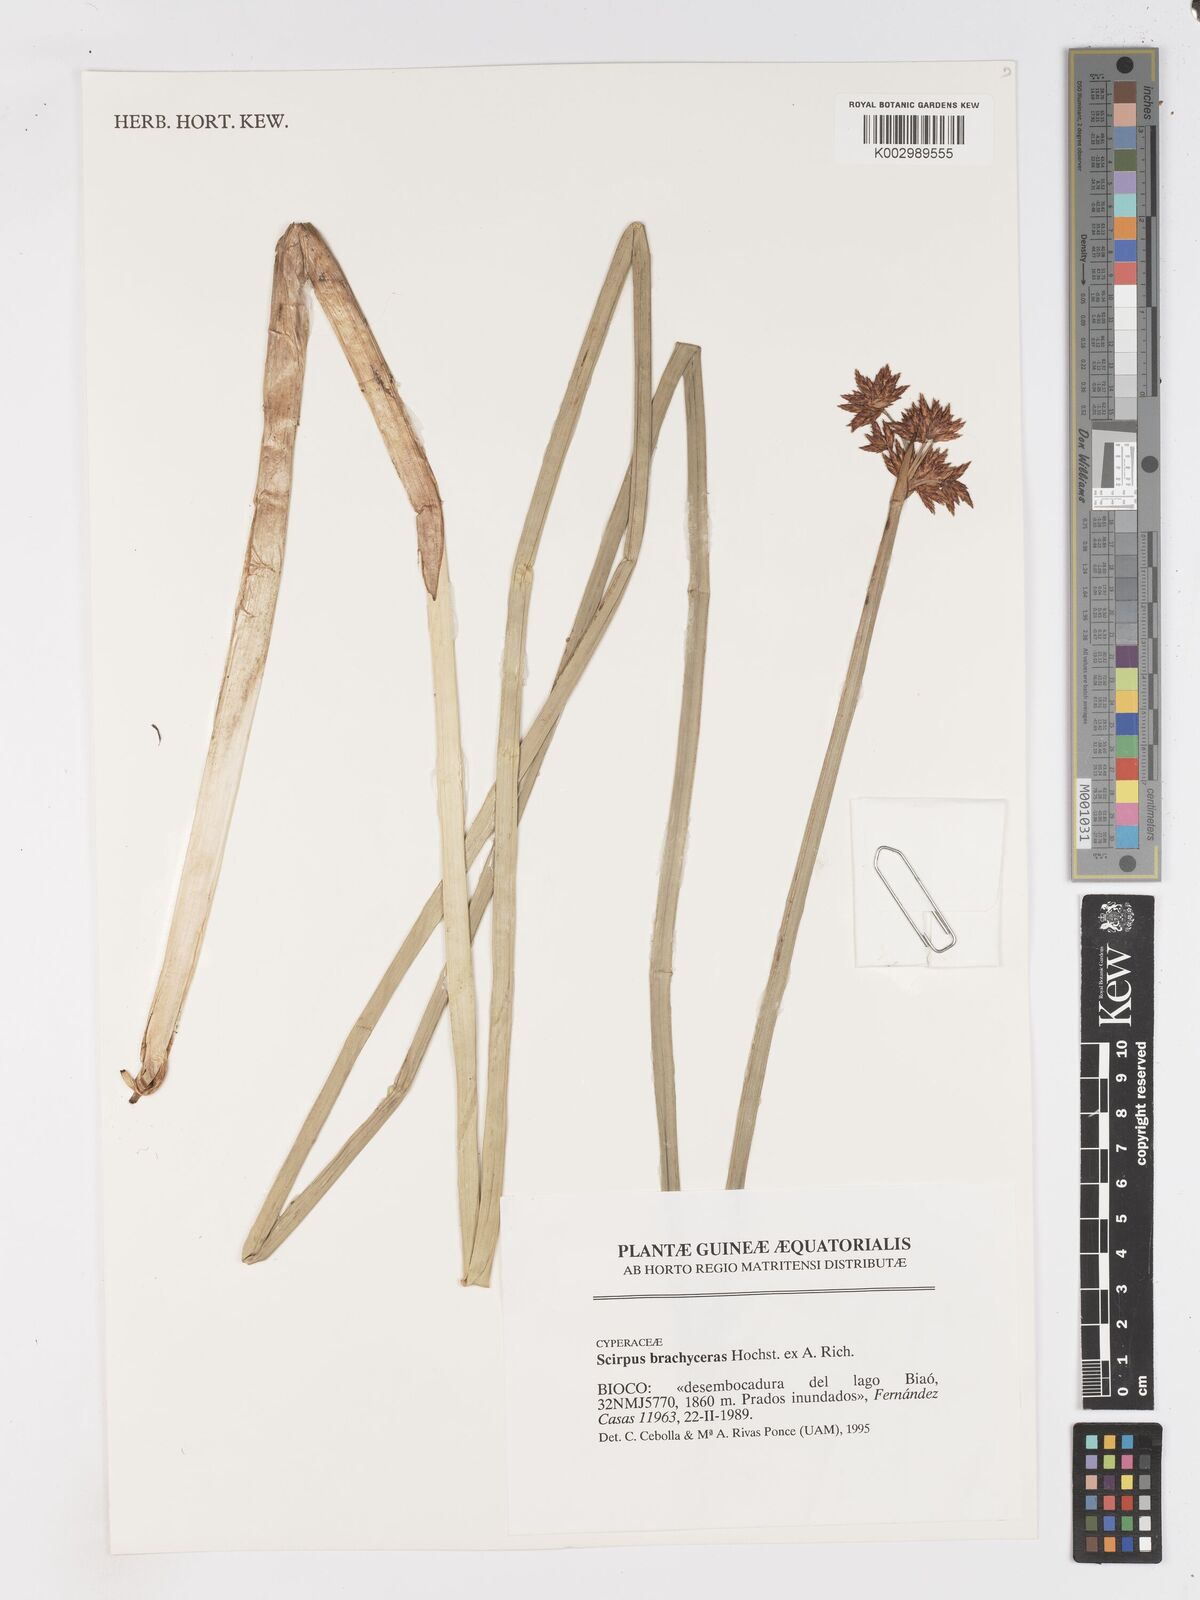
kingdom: Plantae
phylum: Tracheophyta
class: Liliopsida
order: Poales
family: Cyperaceae
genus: Schoenoplectiella
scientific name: Schoenoplectiella corymbosa
